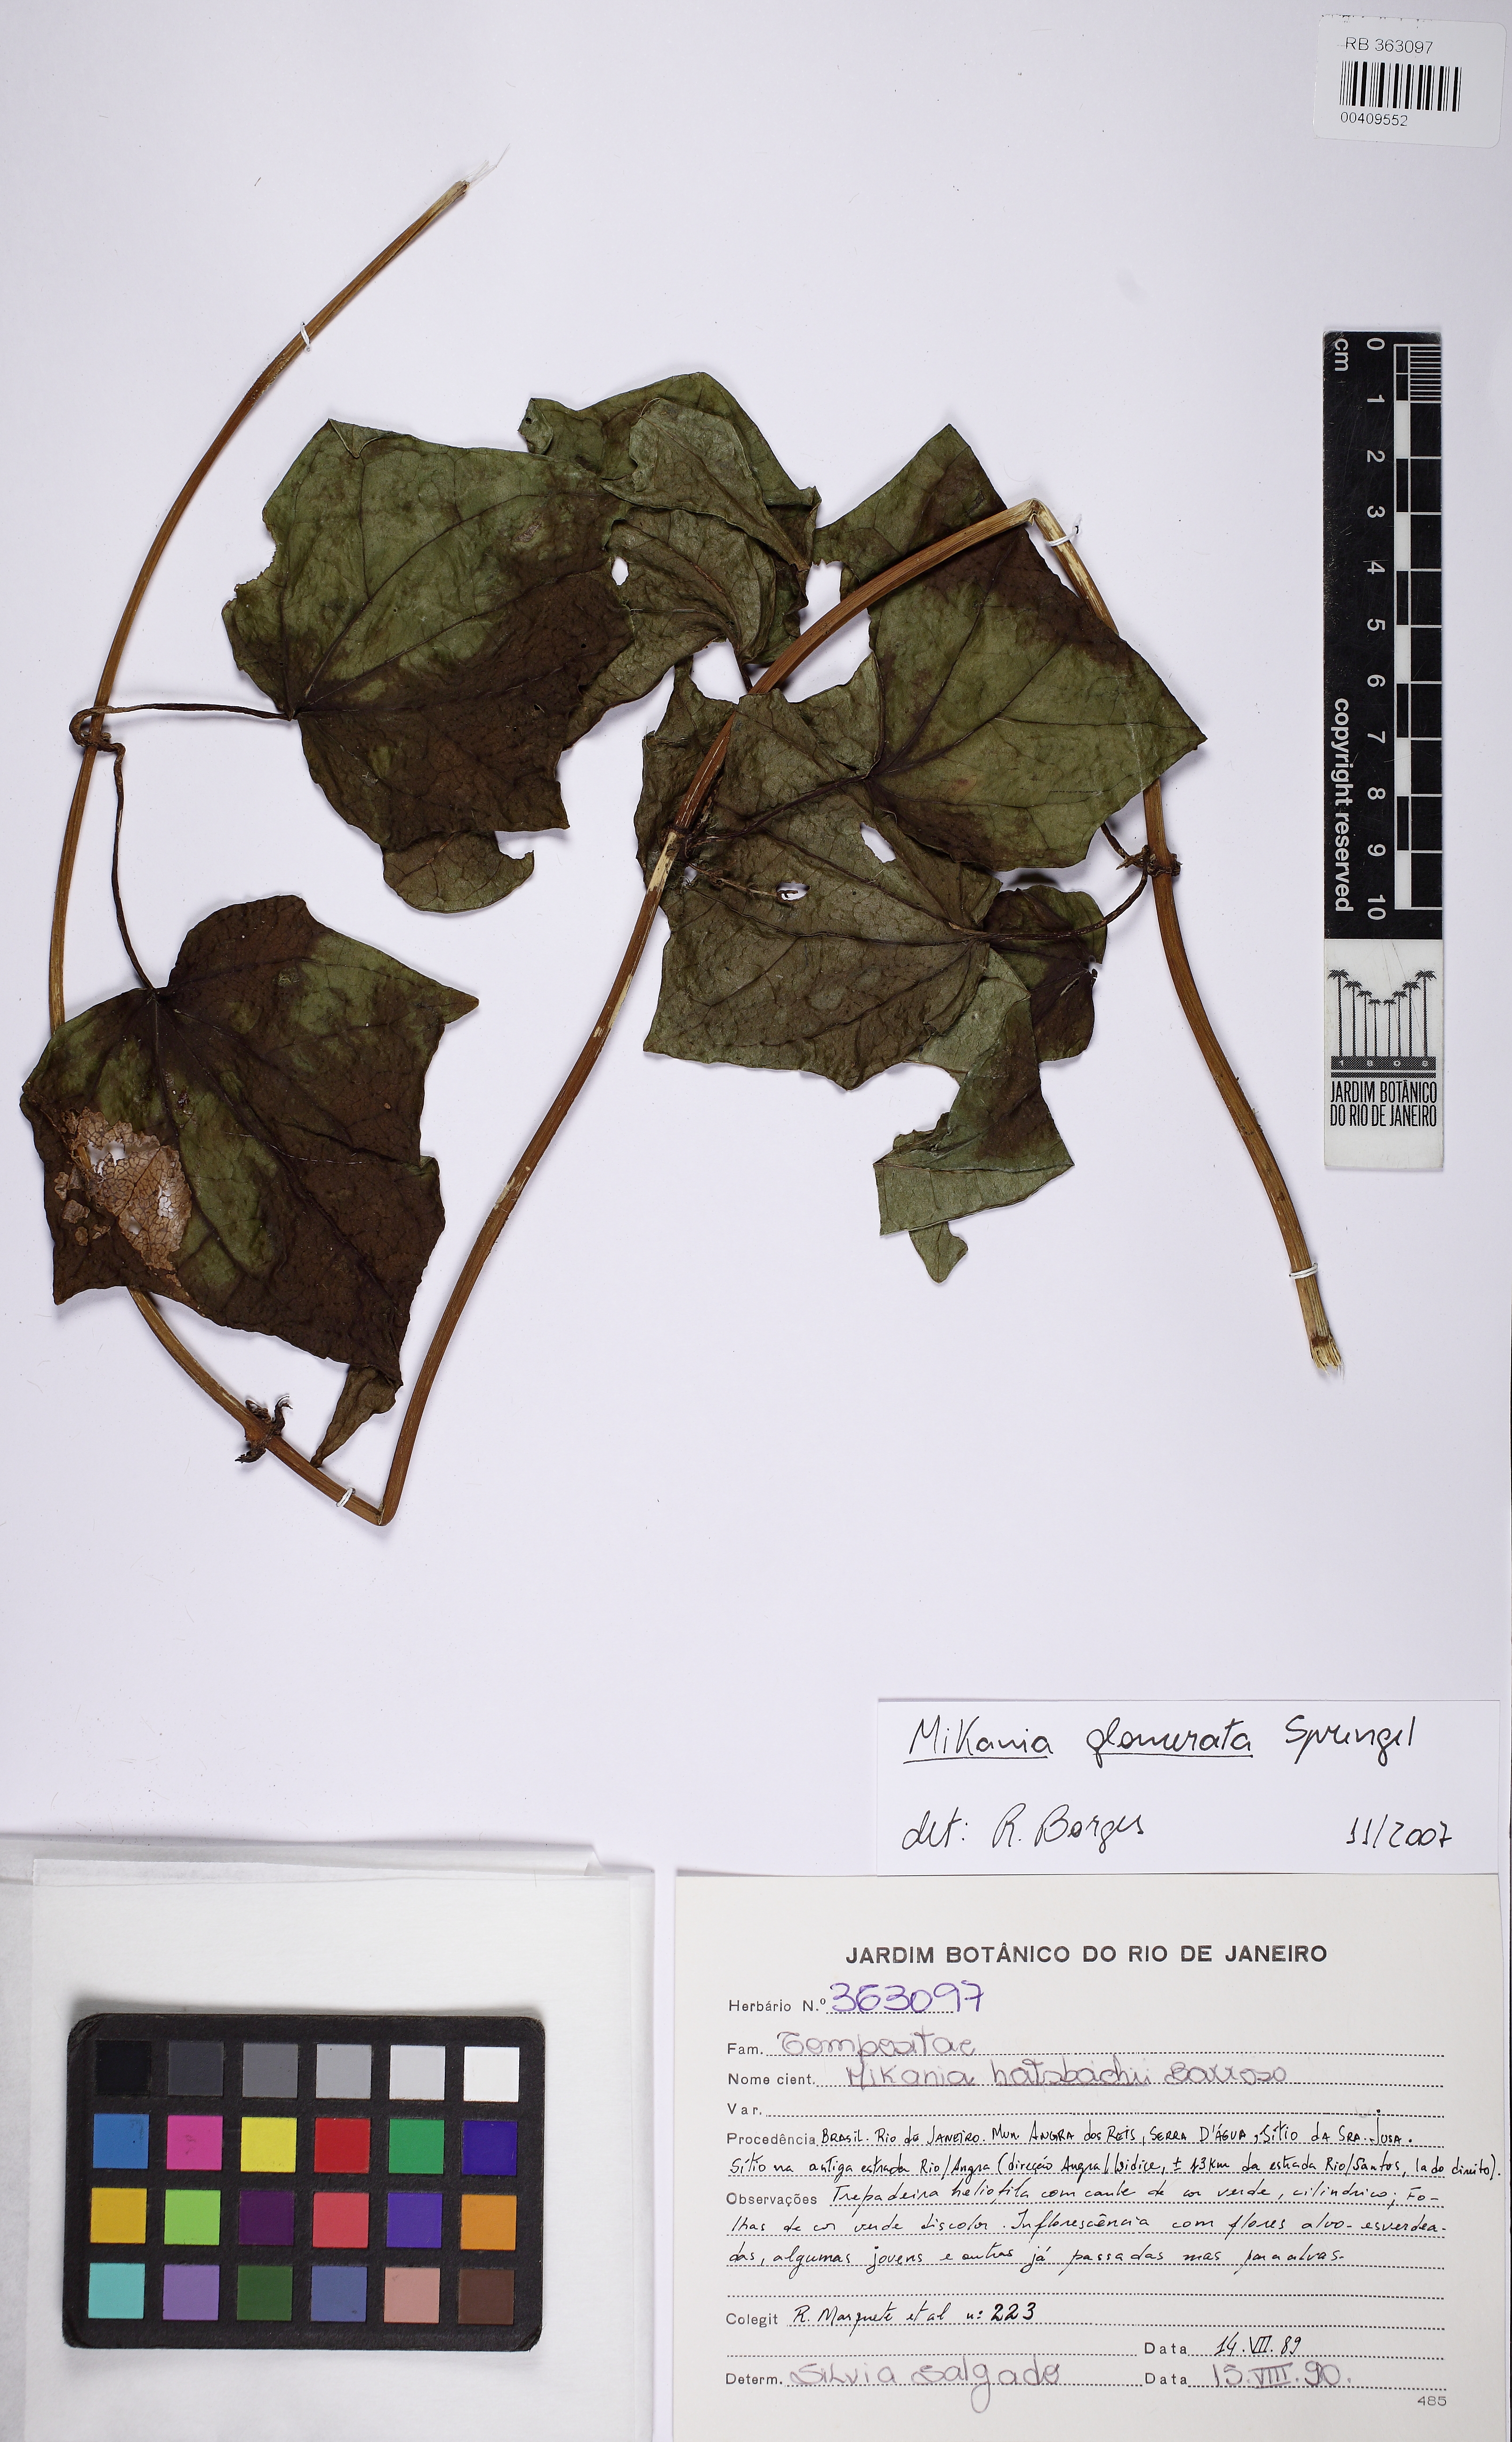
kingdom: Plantae
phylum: Tracheophyta
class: Magnoliopsida
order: Asterales
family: Asteraceae
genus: Mikania
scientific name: Mikania glomerata
